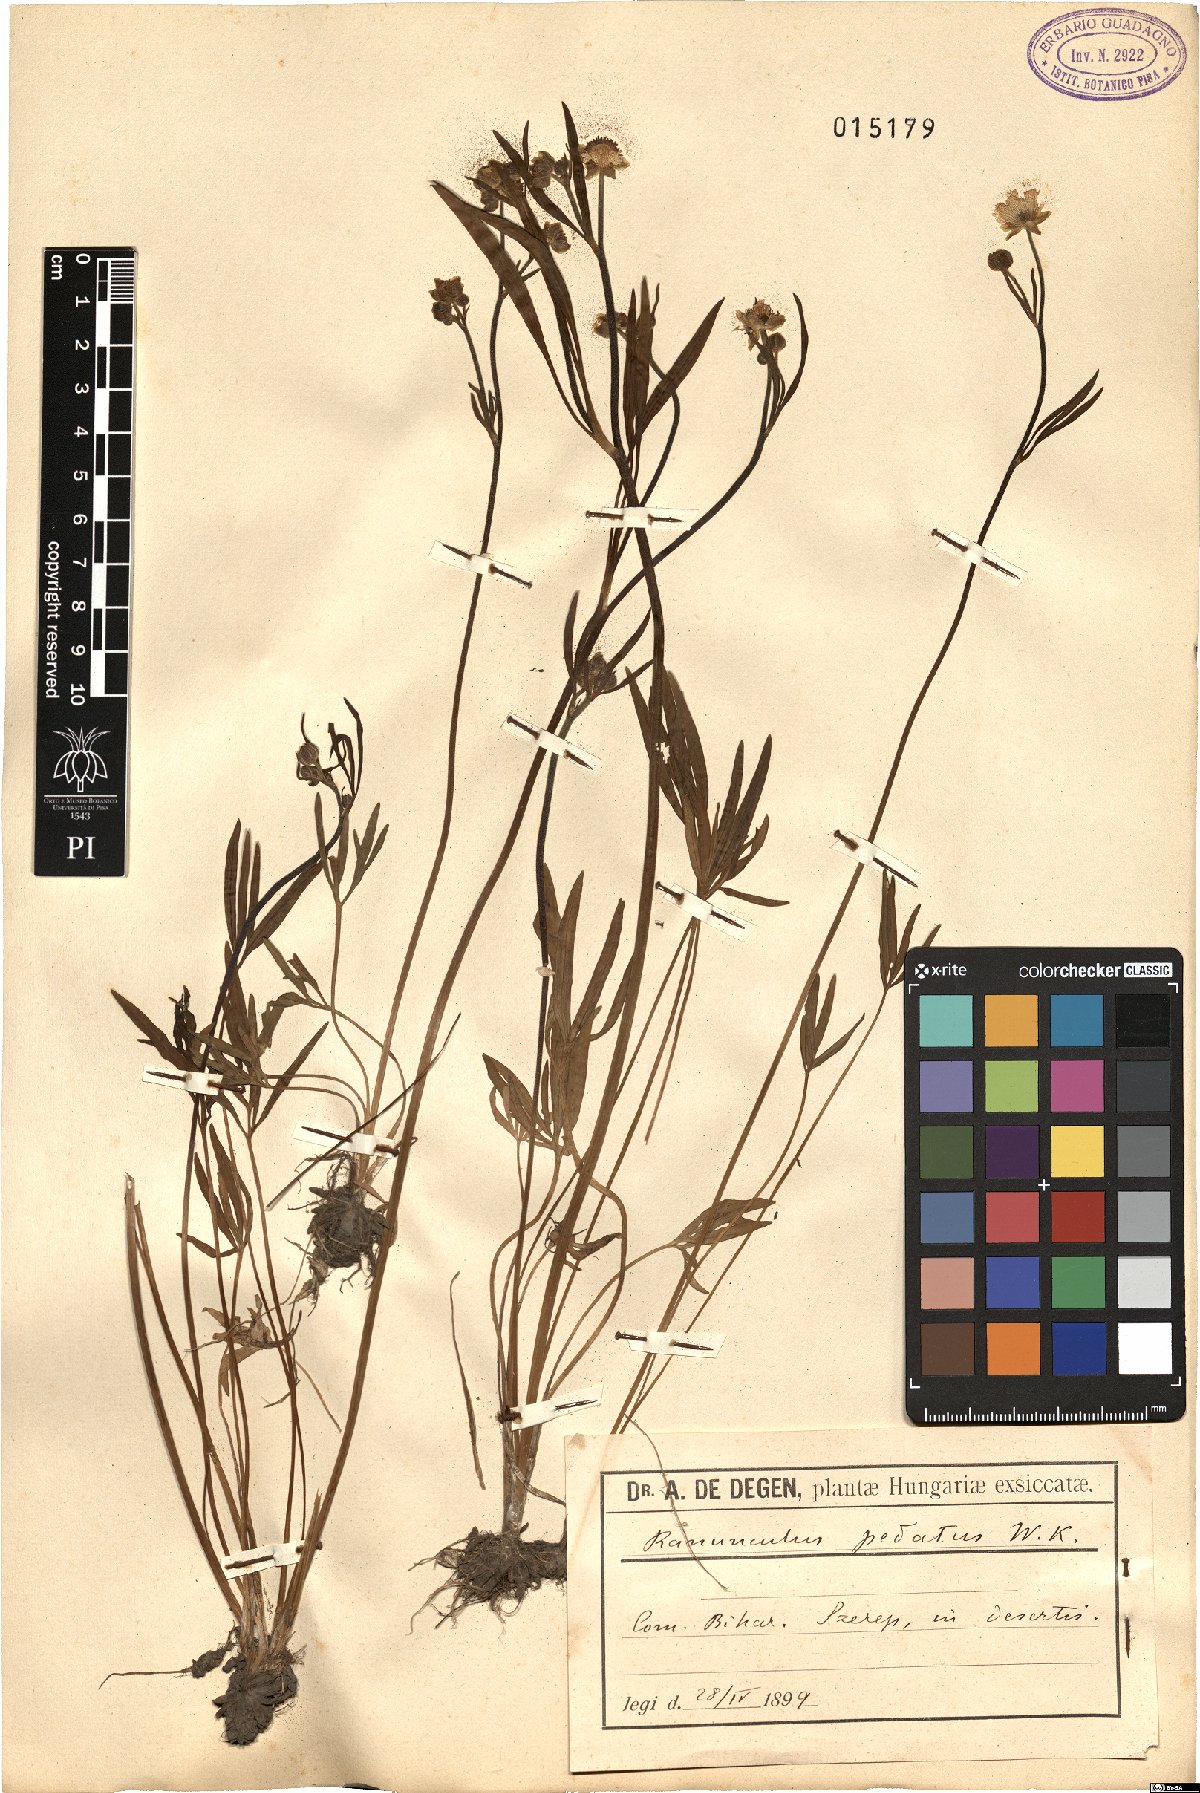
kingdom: Plantae
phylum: Tracheophyta
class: Magnoliopsida
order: Ranunculales
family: Ranunculaceae
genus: Ranunculus
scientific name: Ranunculus pedatus
